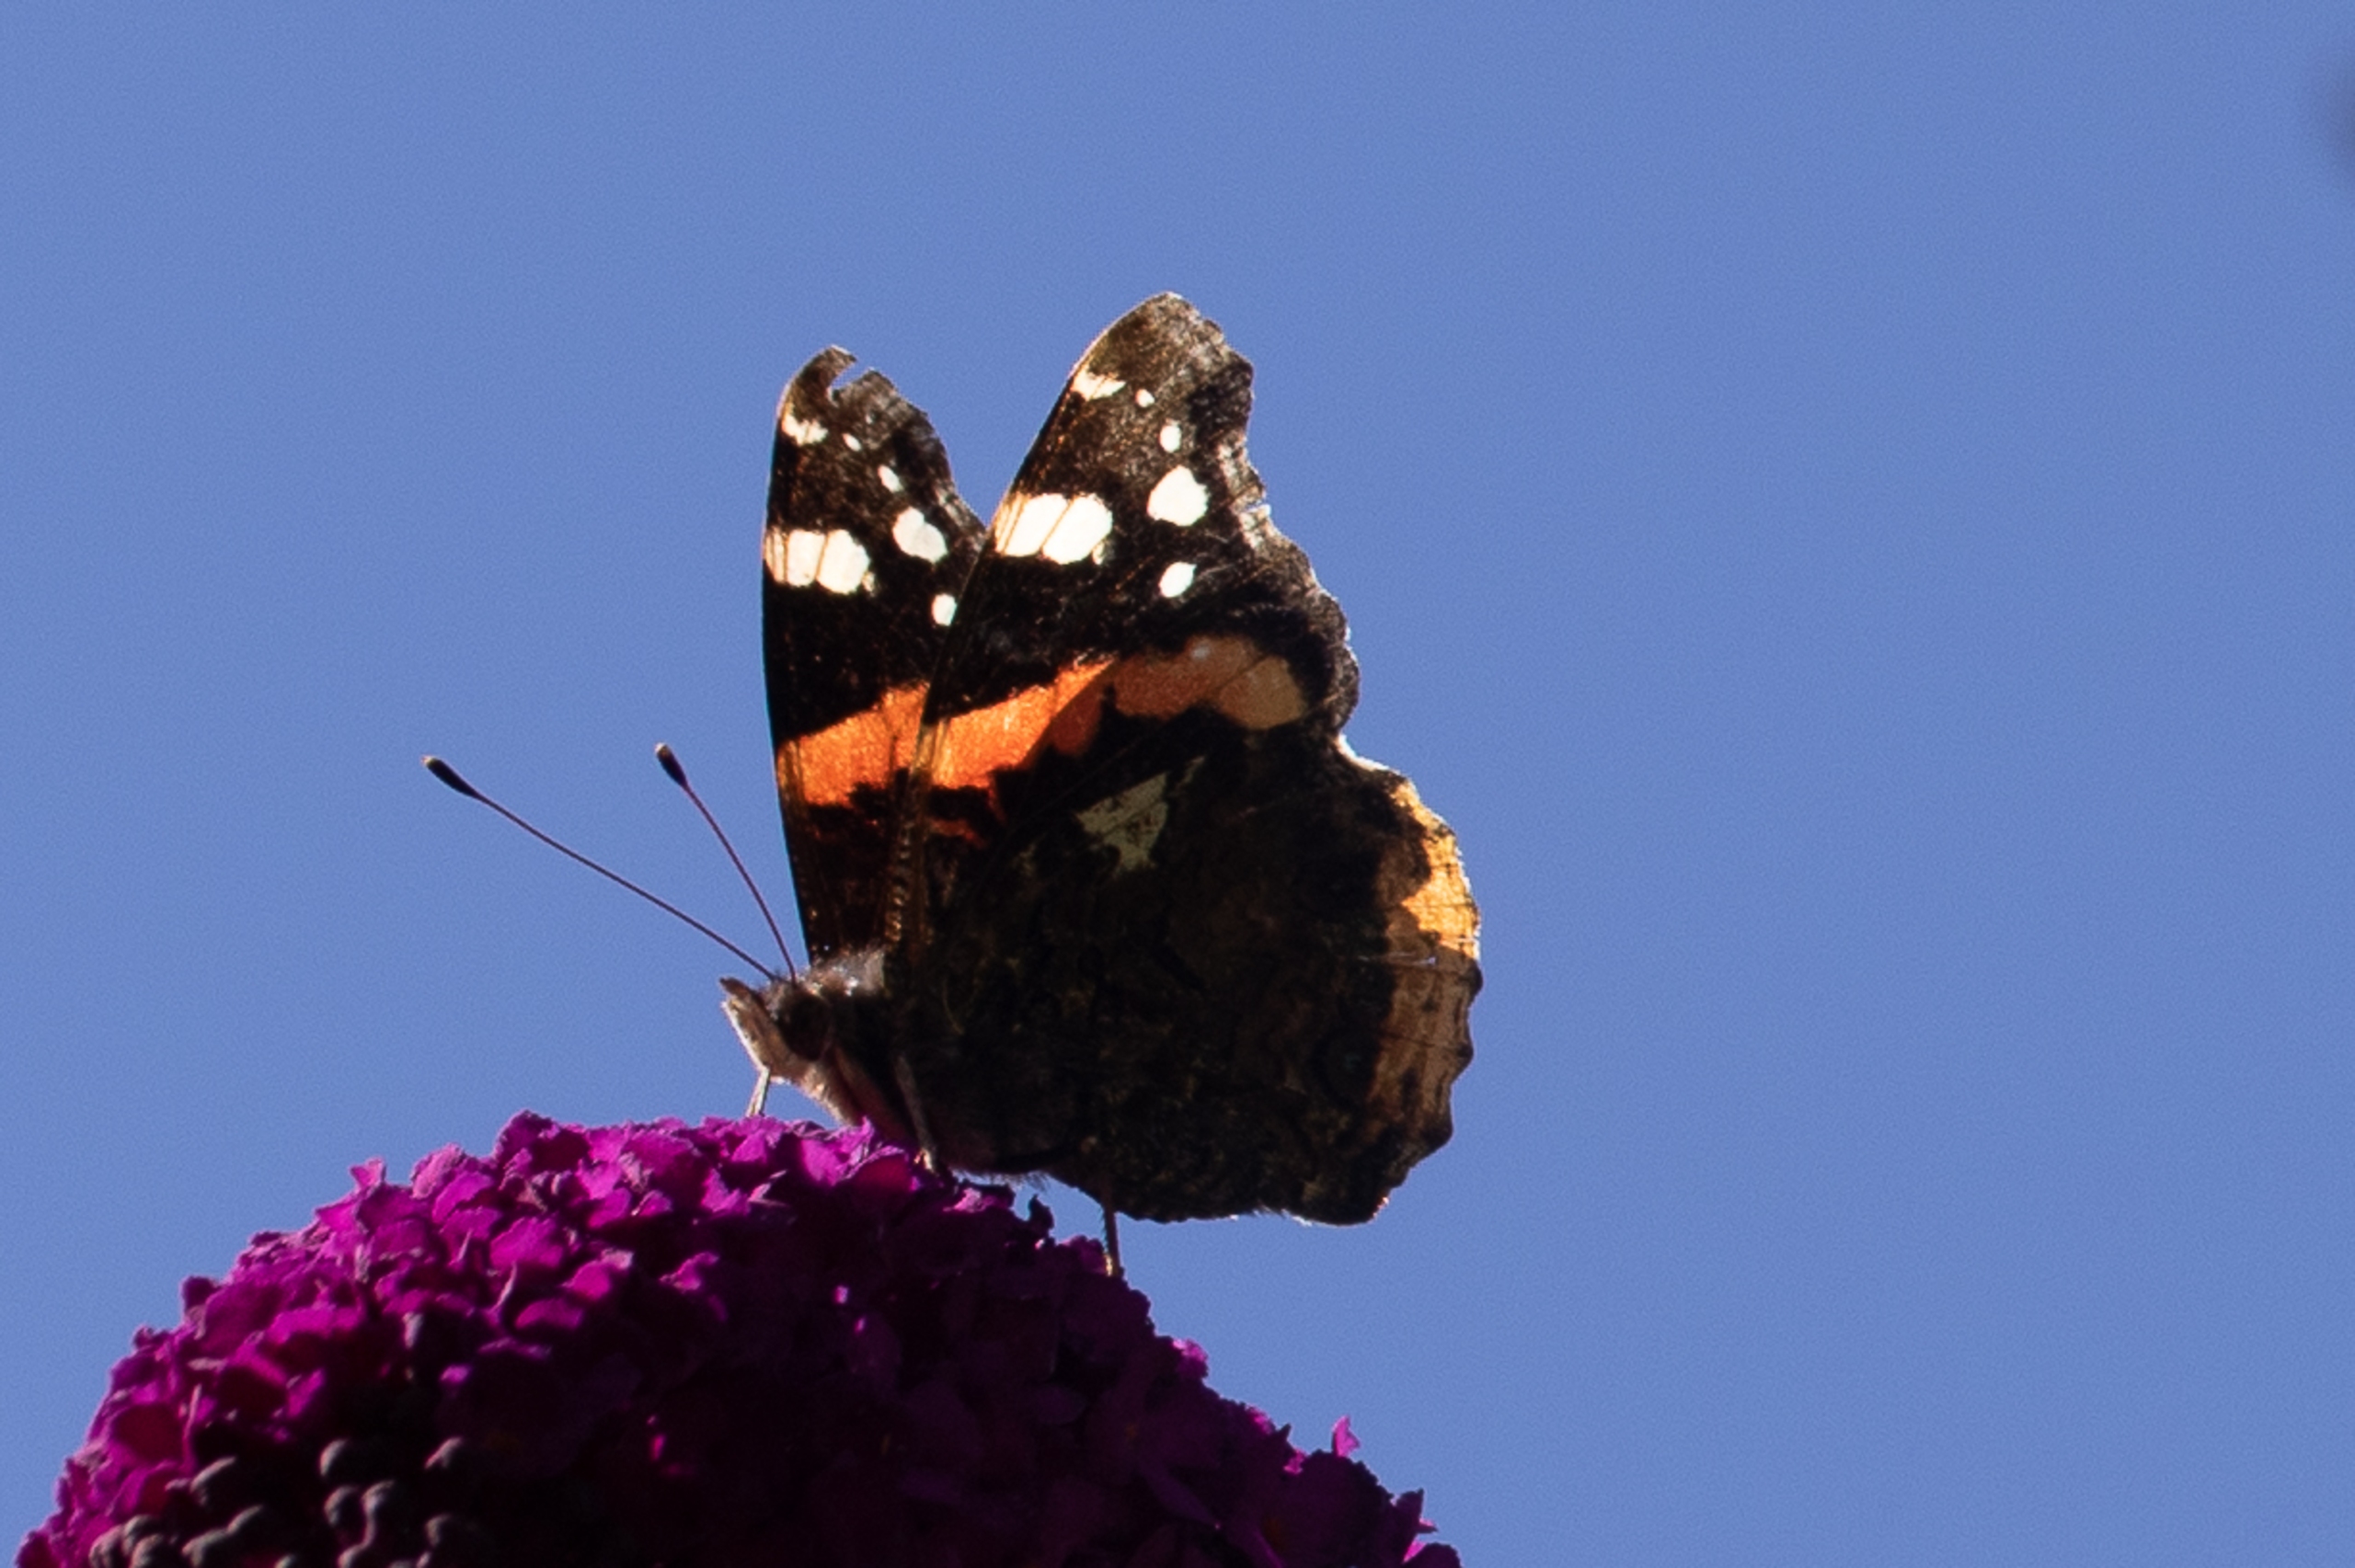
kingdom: Animalia
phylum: Arthropoda
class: Insecta
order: Lepidoptera
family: Nymphalidae
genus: Vanessa
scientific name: Vanessa atalanta
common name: Admiral
